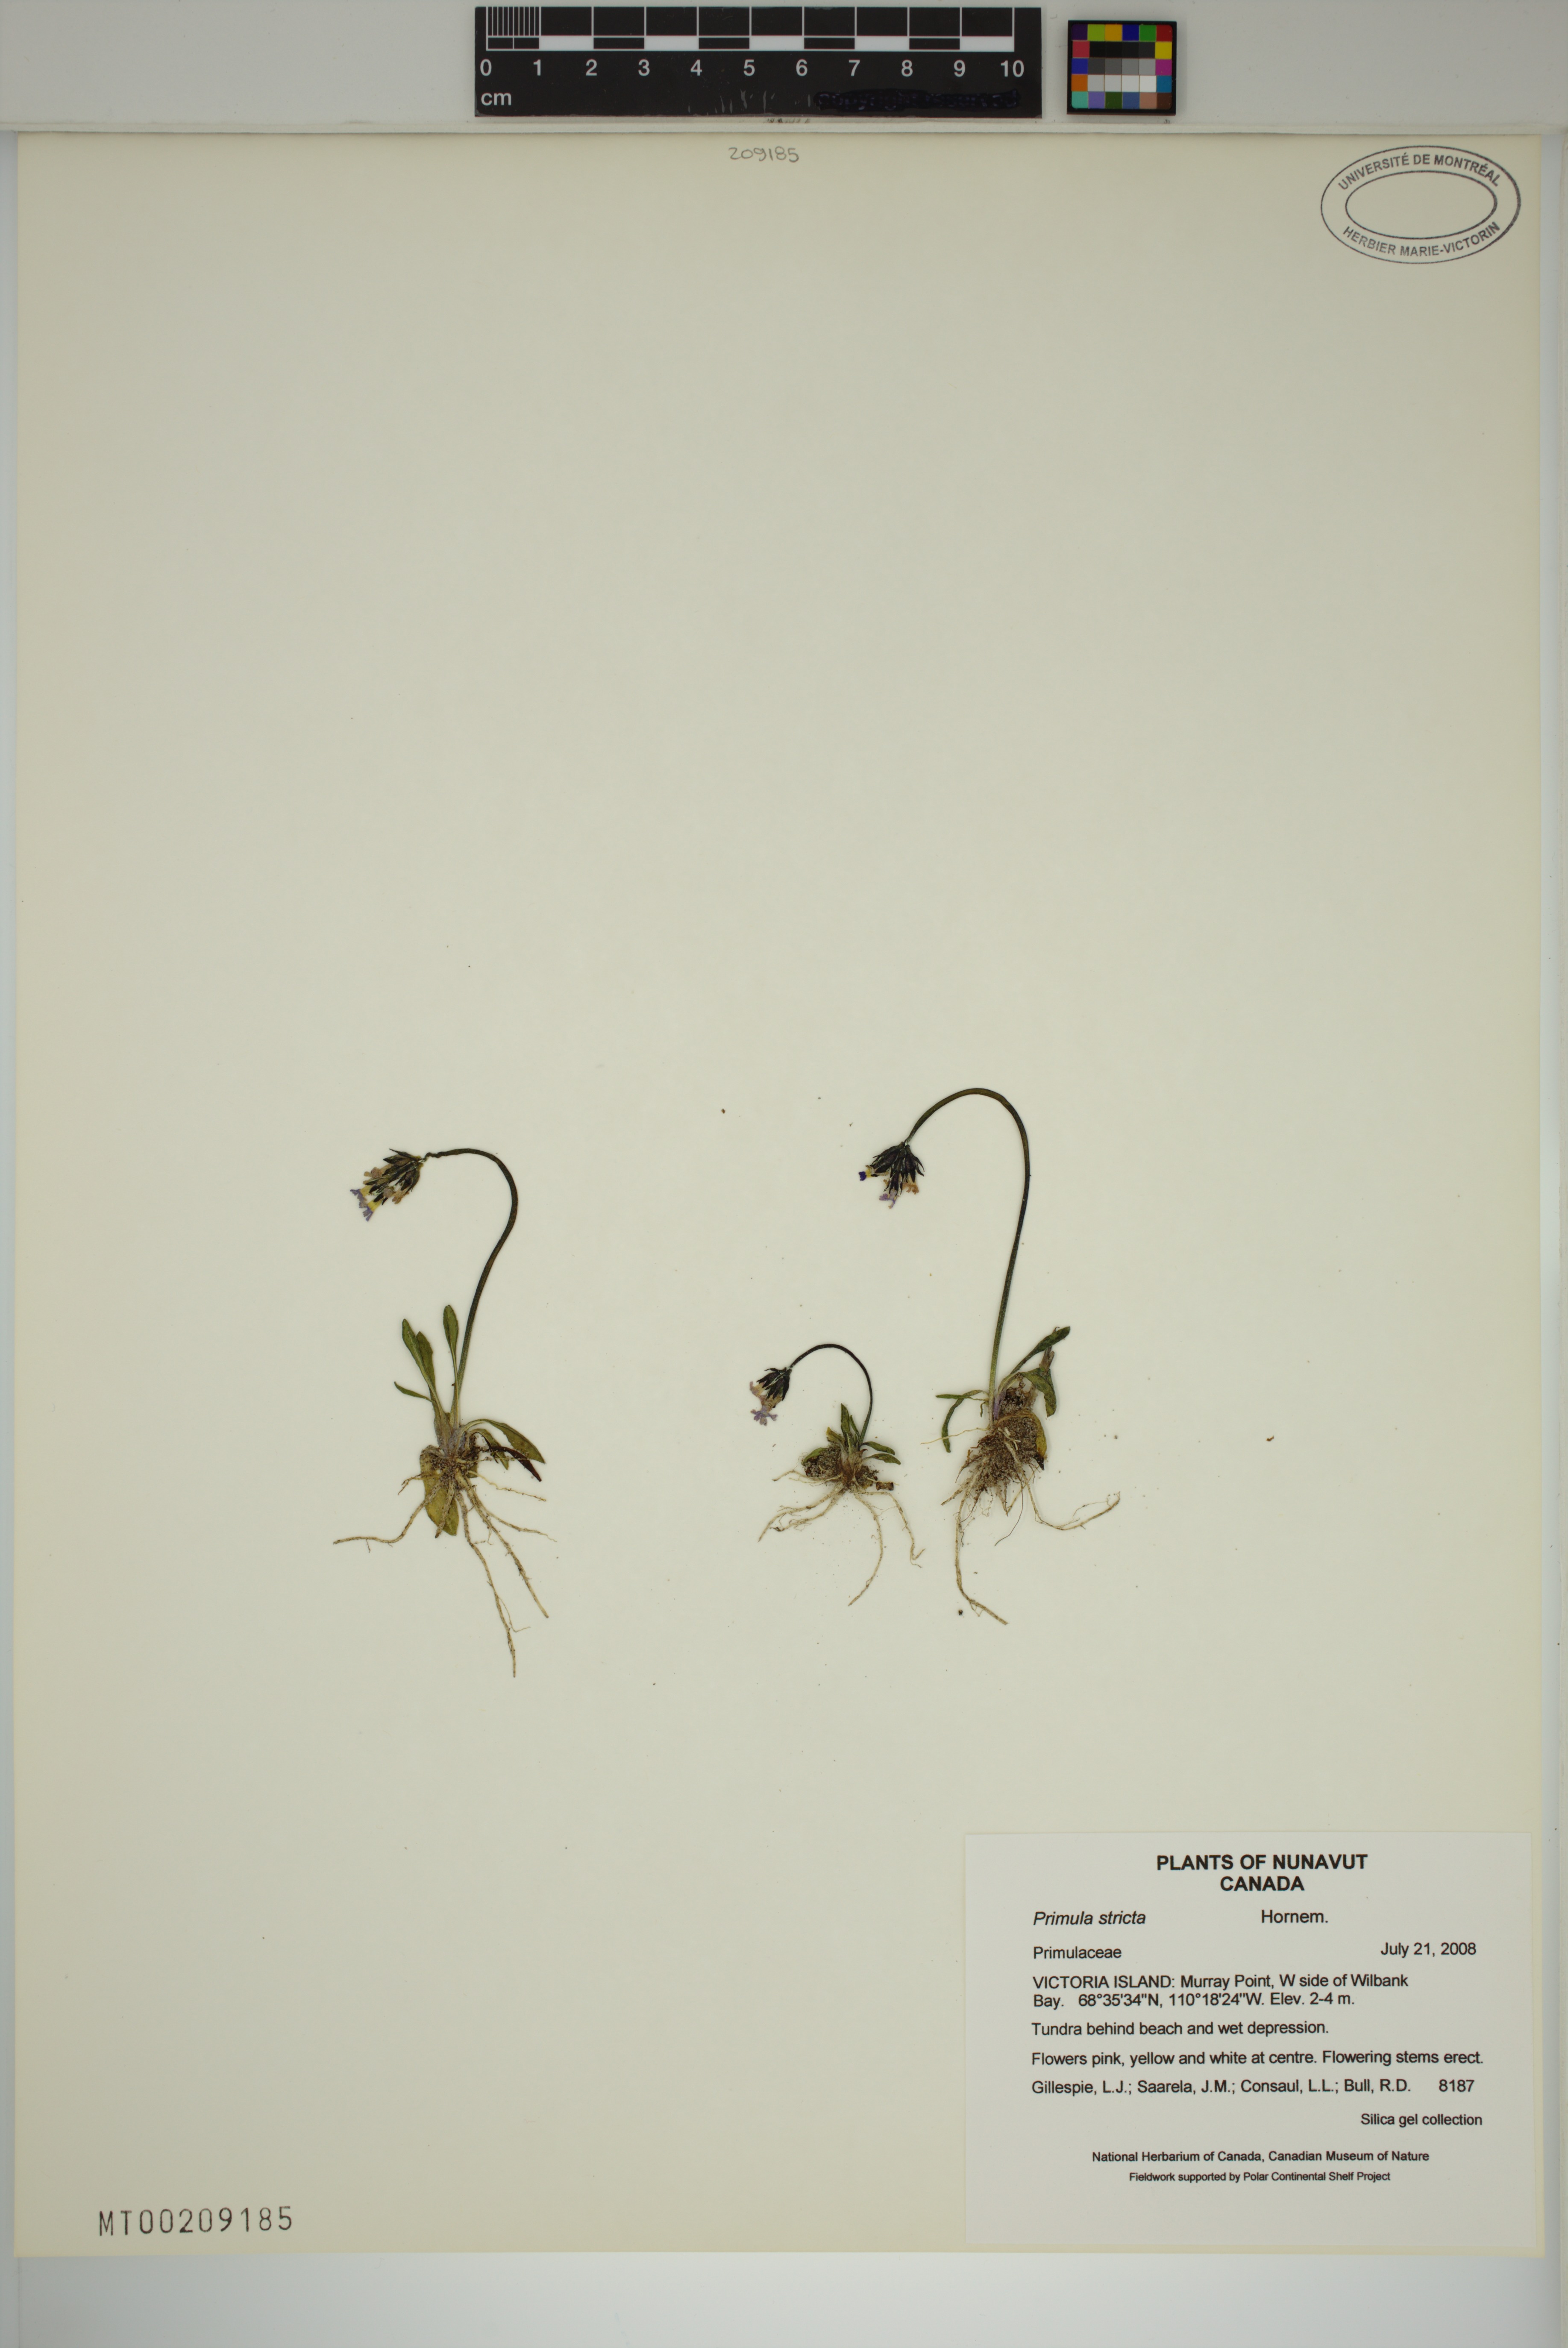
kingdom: Plantae
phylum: Tracheophyta
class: Magnoliopsida
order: Ericales
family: Primulaceae
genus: Primula
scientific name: Primula stricta
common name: Coastal primrose
